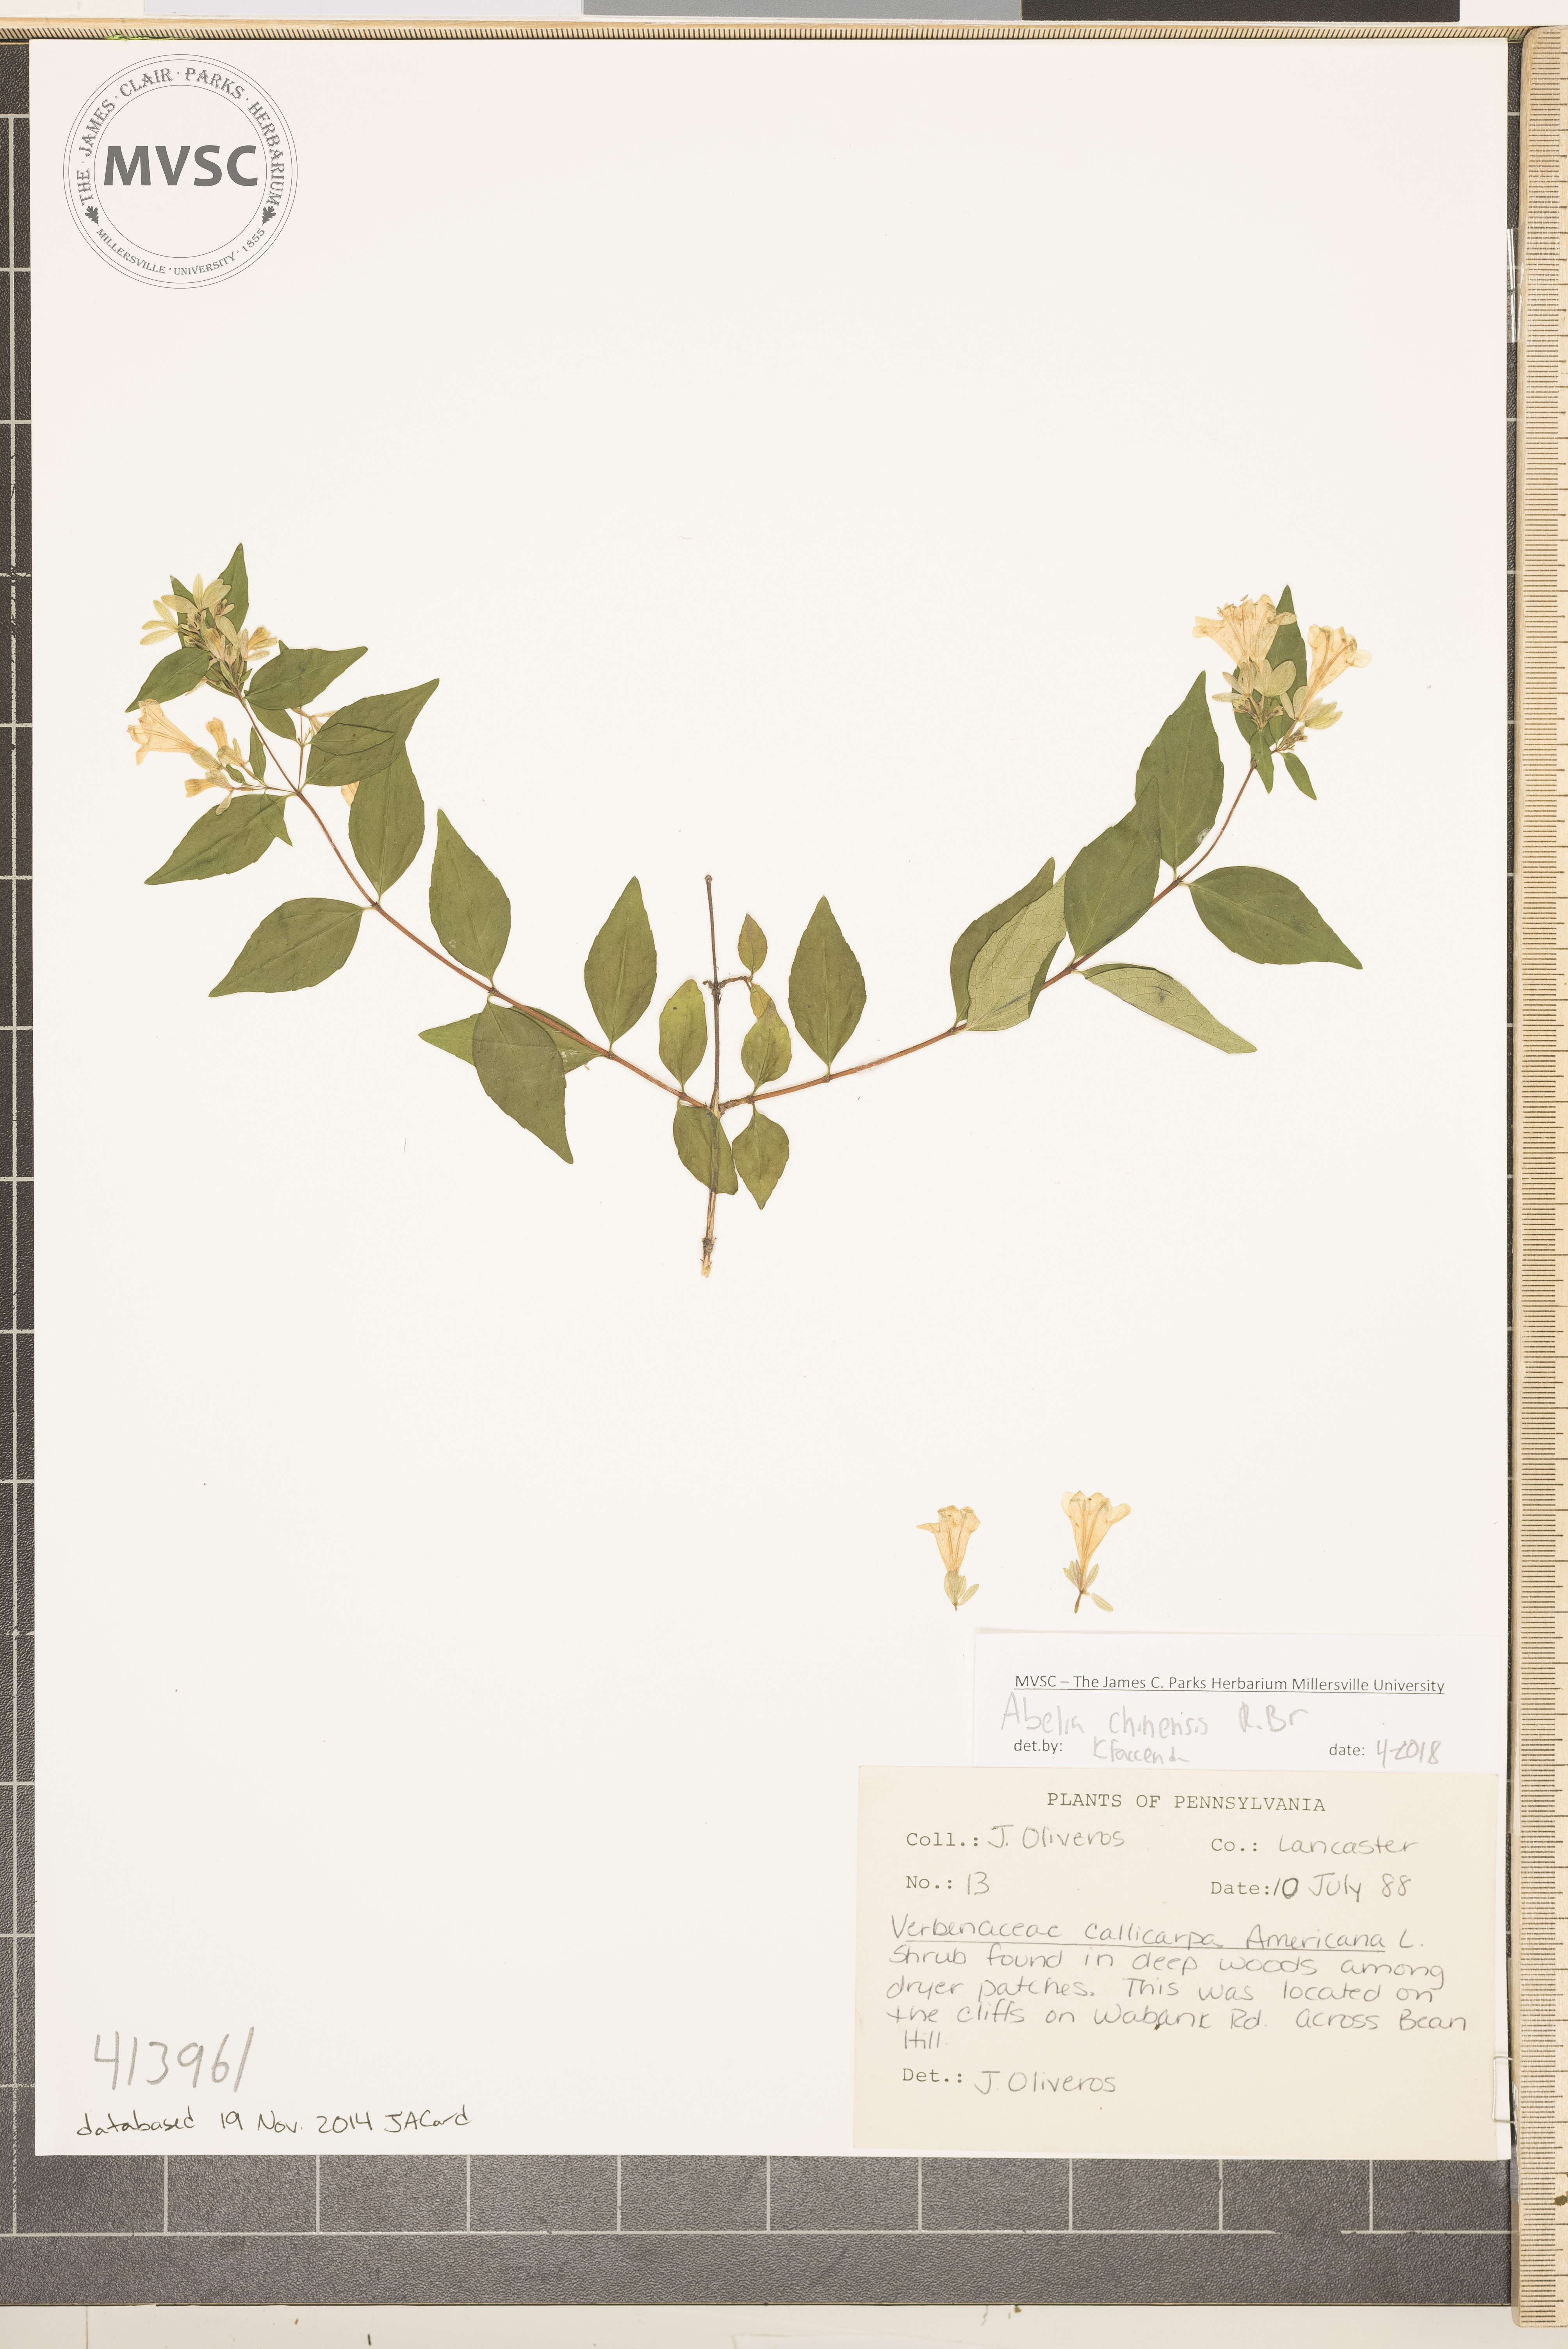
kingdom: Plantae
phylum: Tracheophyta
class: Magnoliopsida
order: Dipsacales
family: Caprifoliaceae
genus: Abelia
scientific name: Abelia chinensis
